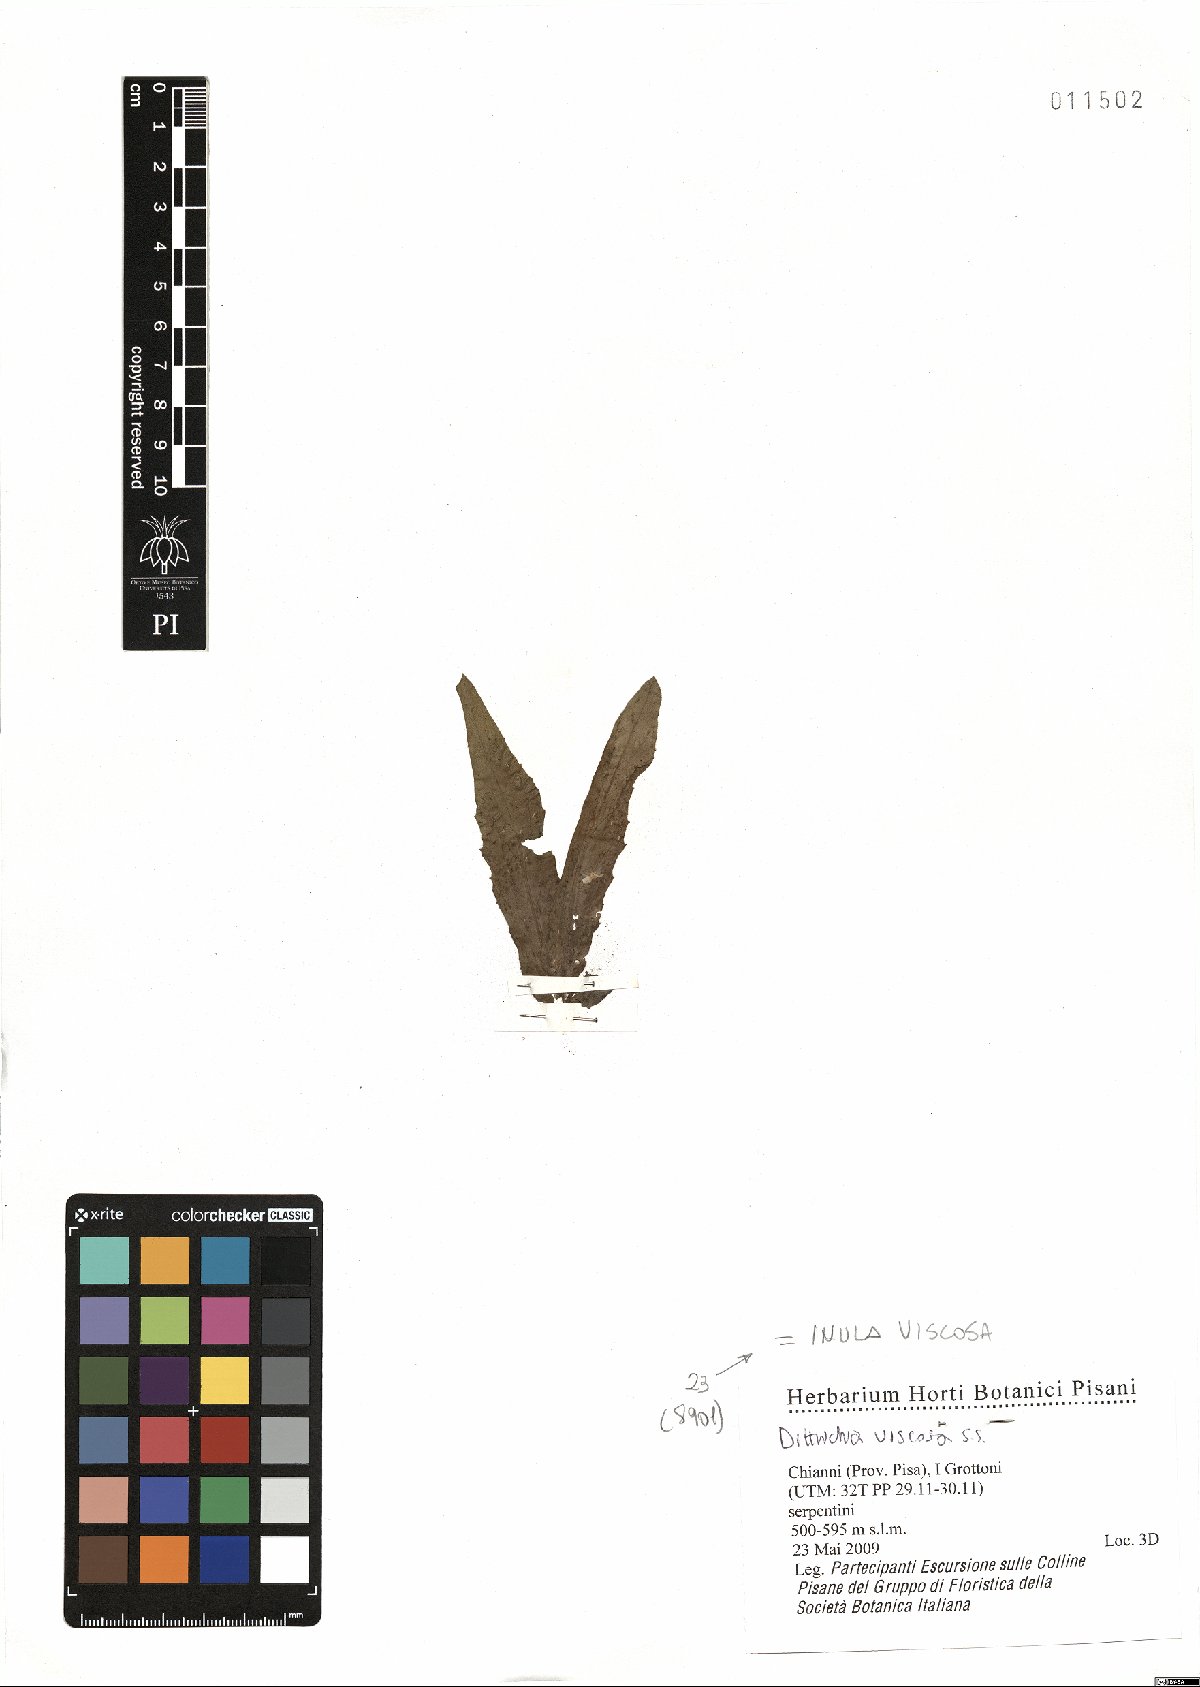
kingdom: Plantae
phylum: Tracheophyta
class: Magnoliopsida
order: Asterales
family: Asteraceae
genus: Dittrichia
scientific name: Dittrichia viscosa
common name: Woody fleabane
